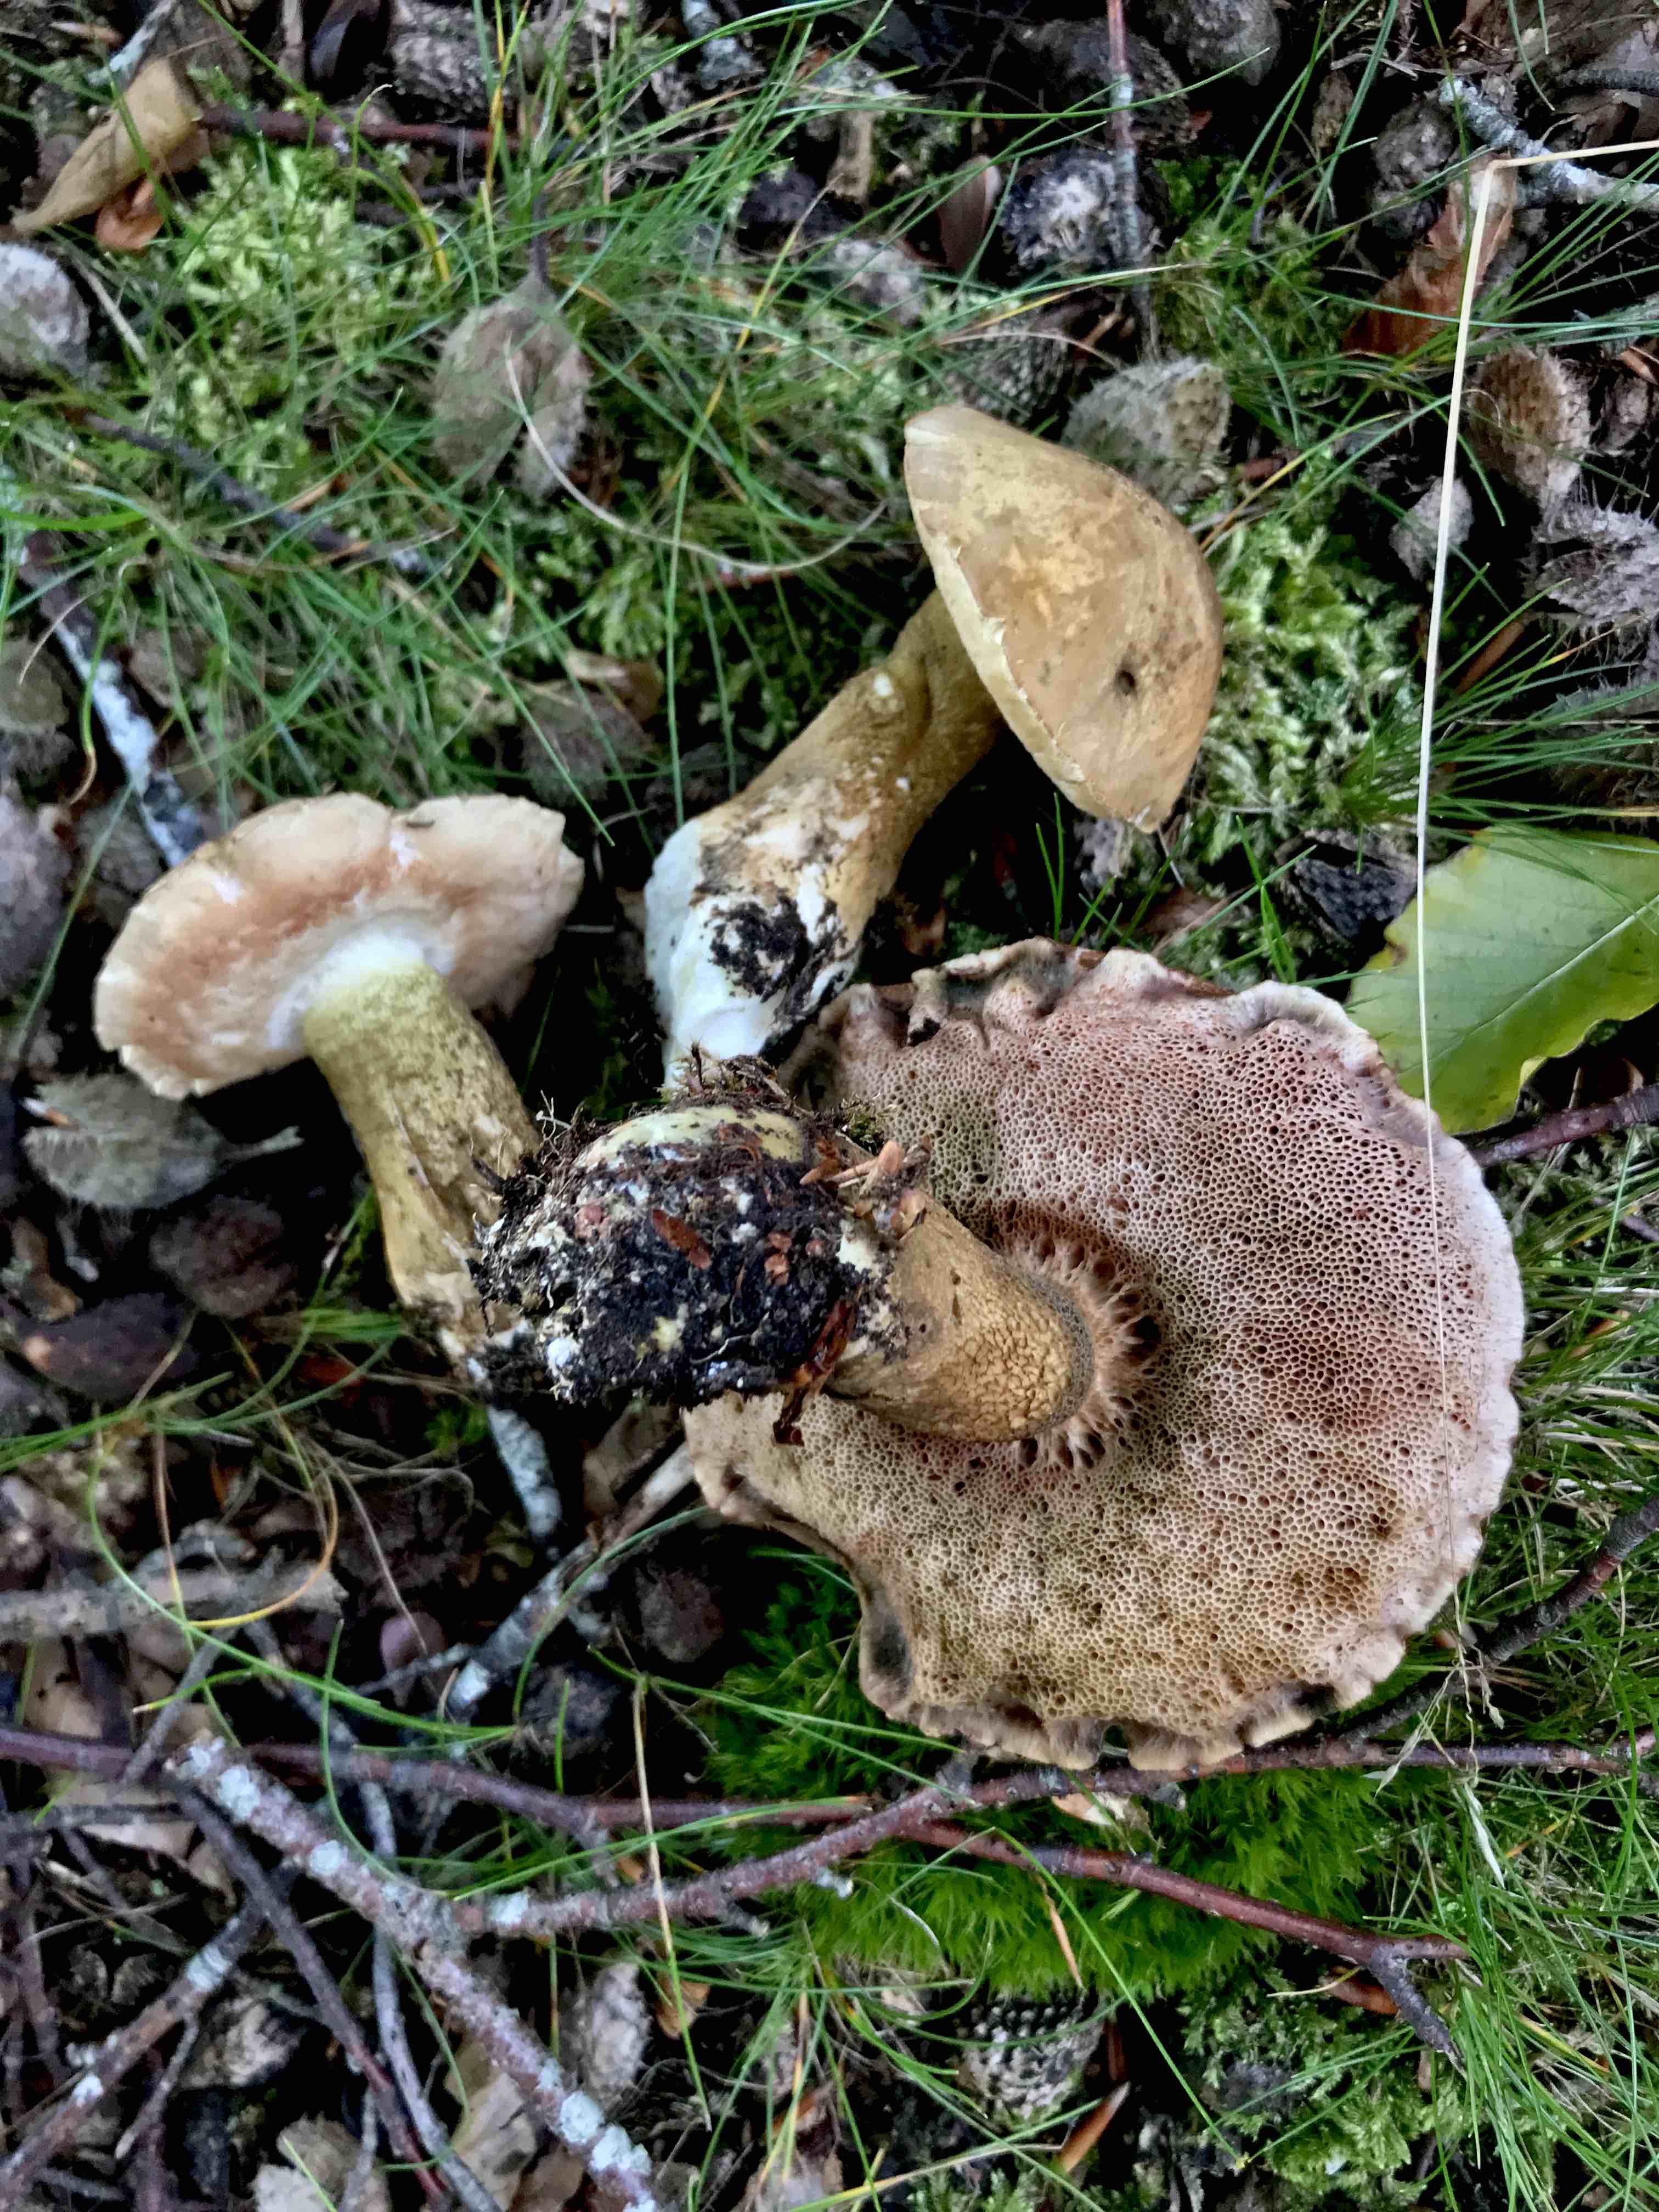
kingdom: Fungi
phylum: Basidiomycota
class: Agaricomycetes
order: Boletales
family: Boletaceae
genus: Tylopilus
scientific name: Tylopilus felleus
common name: galderørhat
